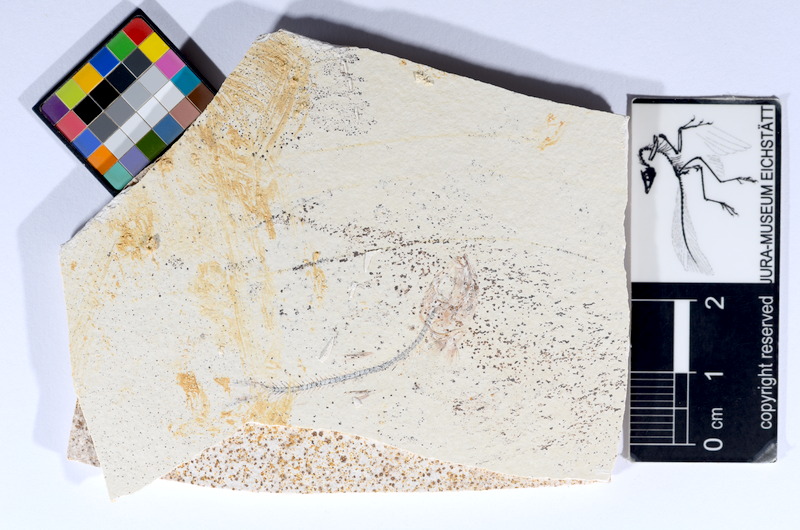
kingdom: Animalia
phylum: Chordata
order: Salmoniformes
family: Orthogonikleithridae
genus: Orthogonikleithrus
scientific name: Orthogonikleithrus hoelli
